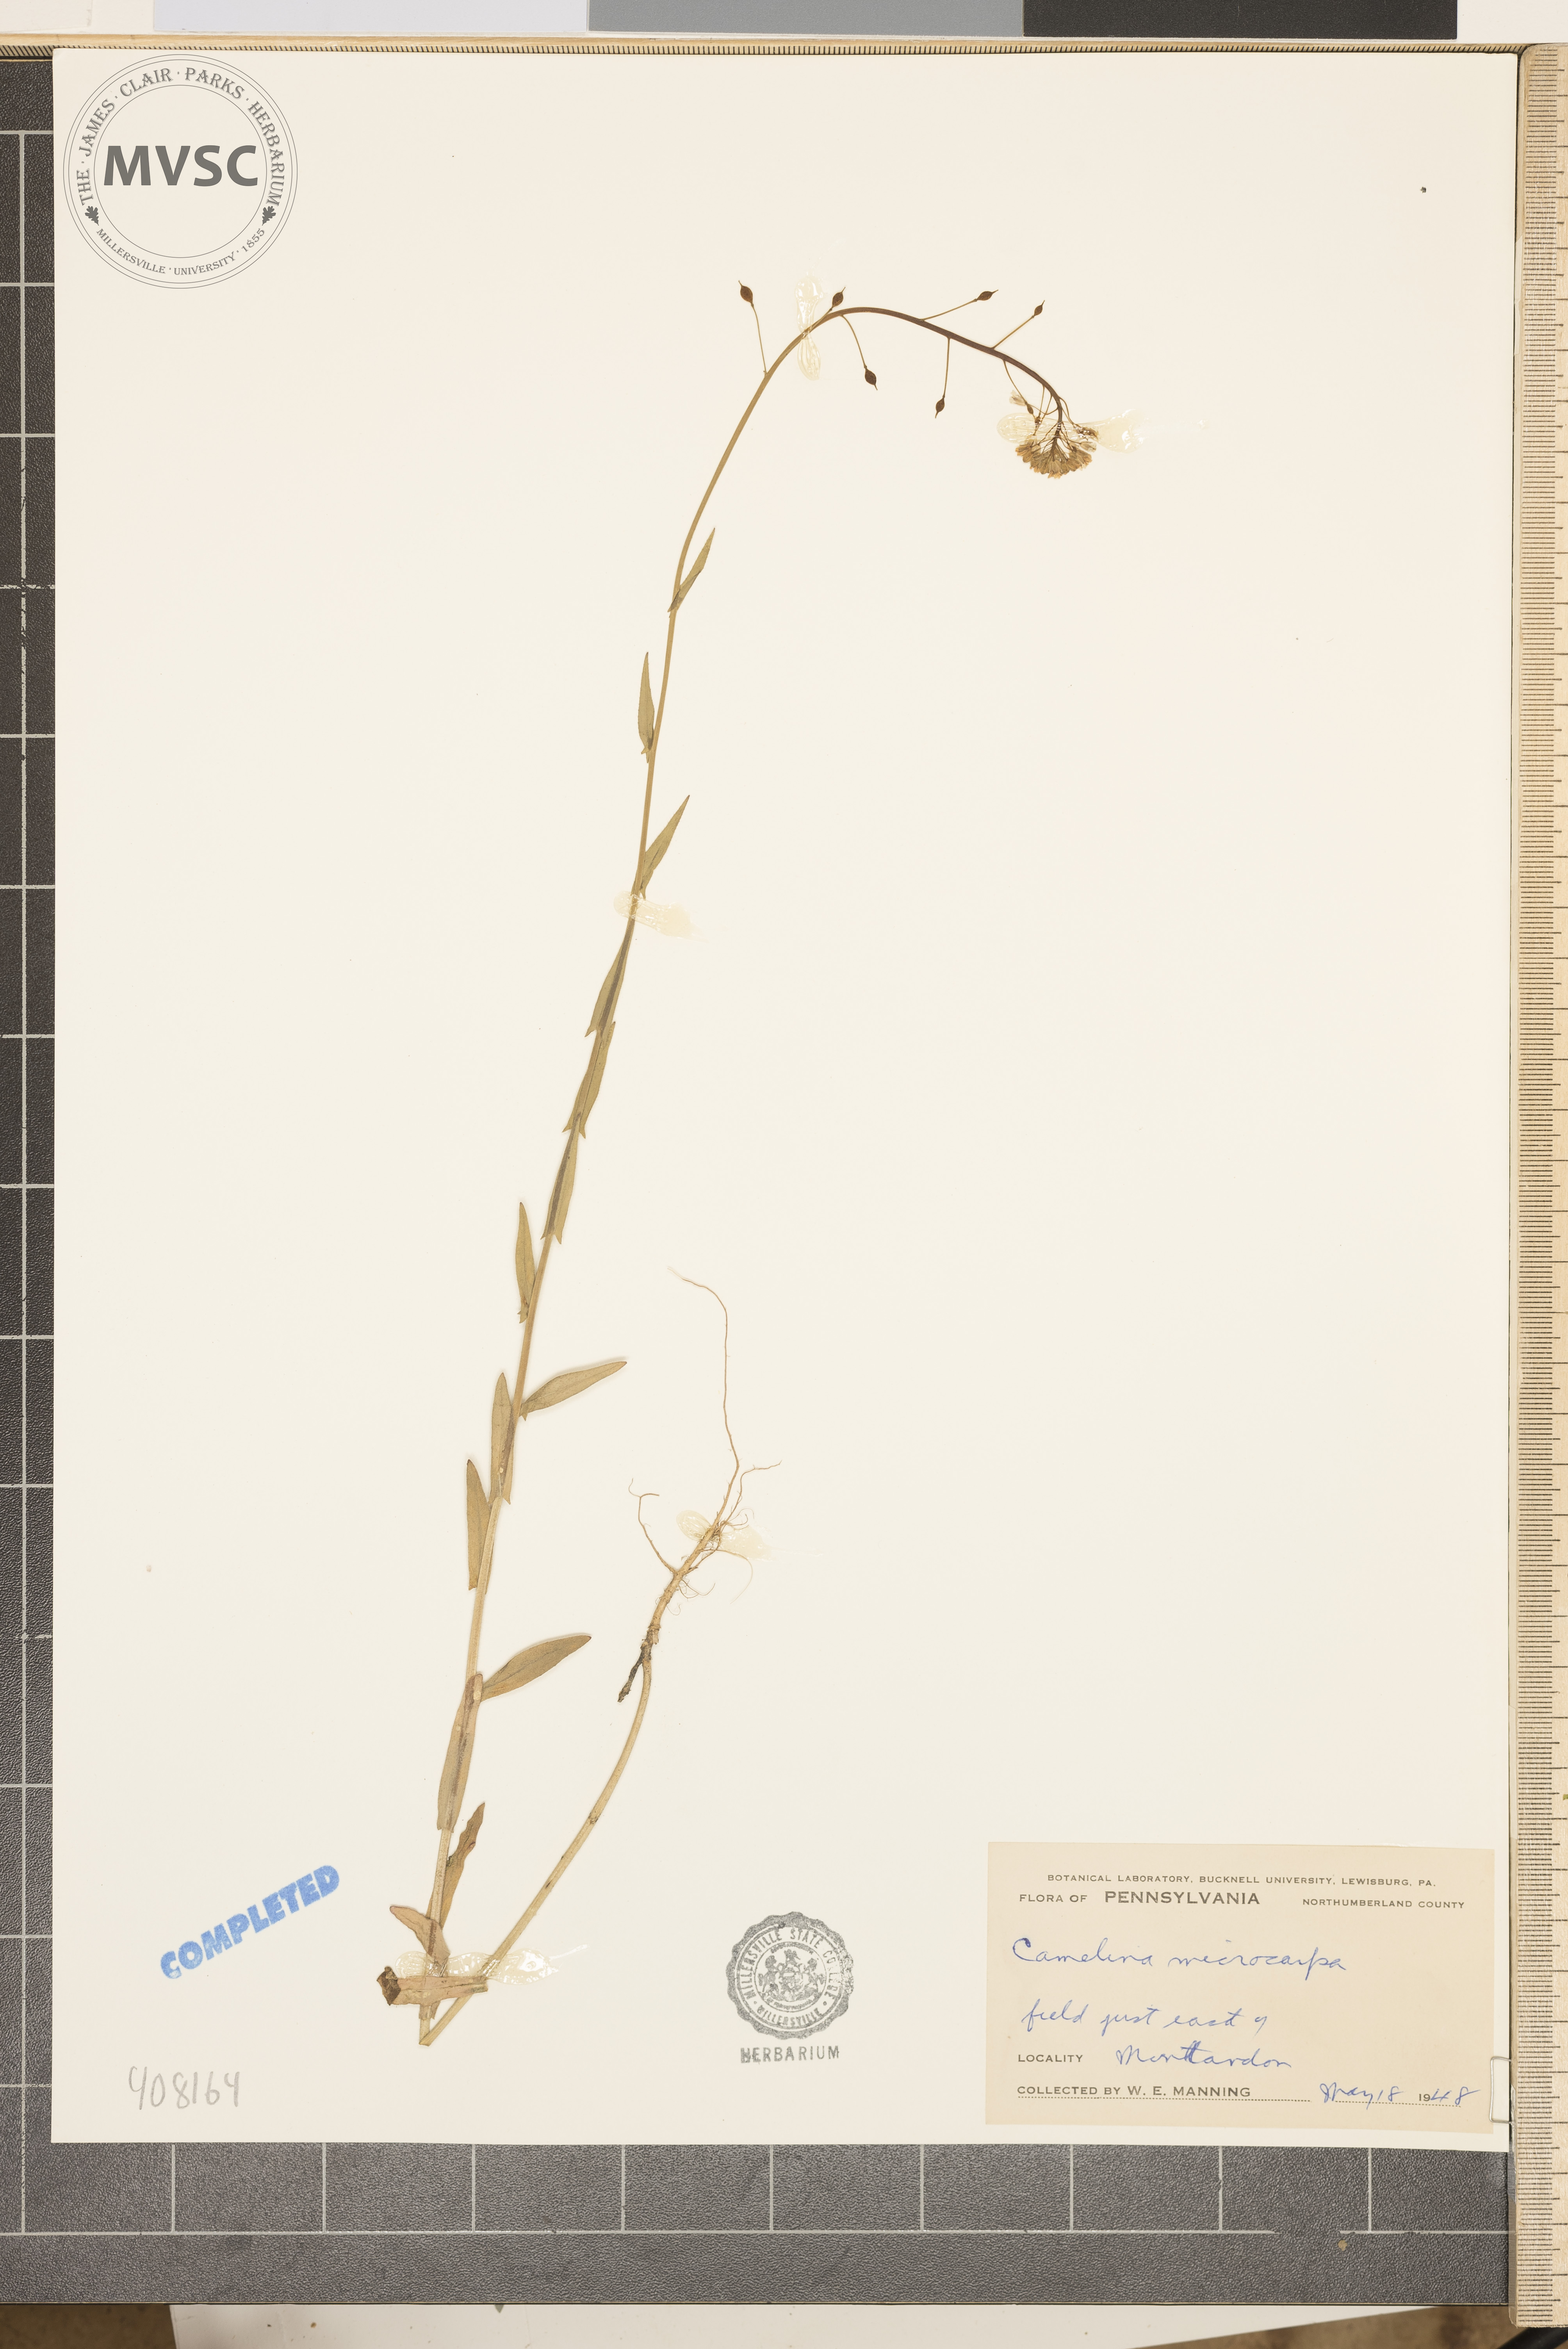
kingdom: Plantae
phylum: Tracheophyta
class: Magnoliopsida
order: Brassicales
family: Brassicaceae
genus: Camelina
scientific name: Camelina microcarpa
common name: Lesser gold-of-pleasure
